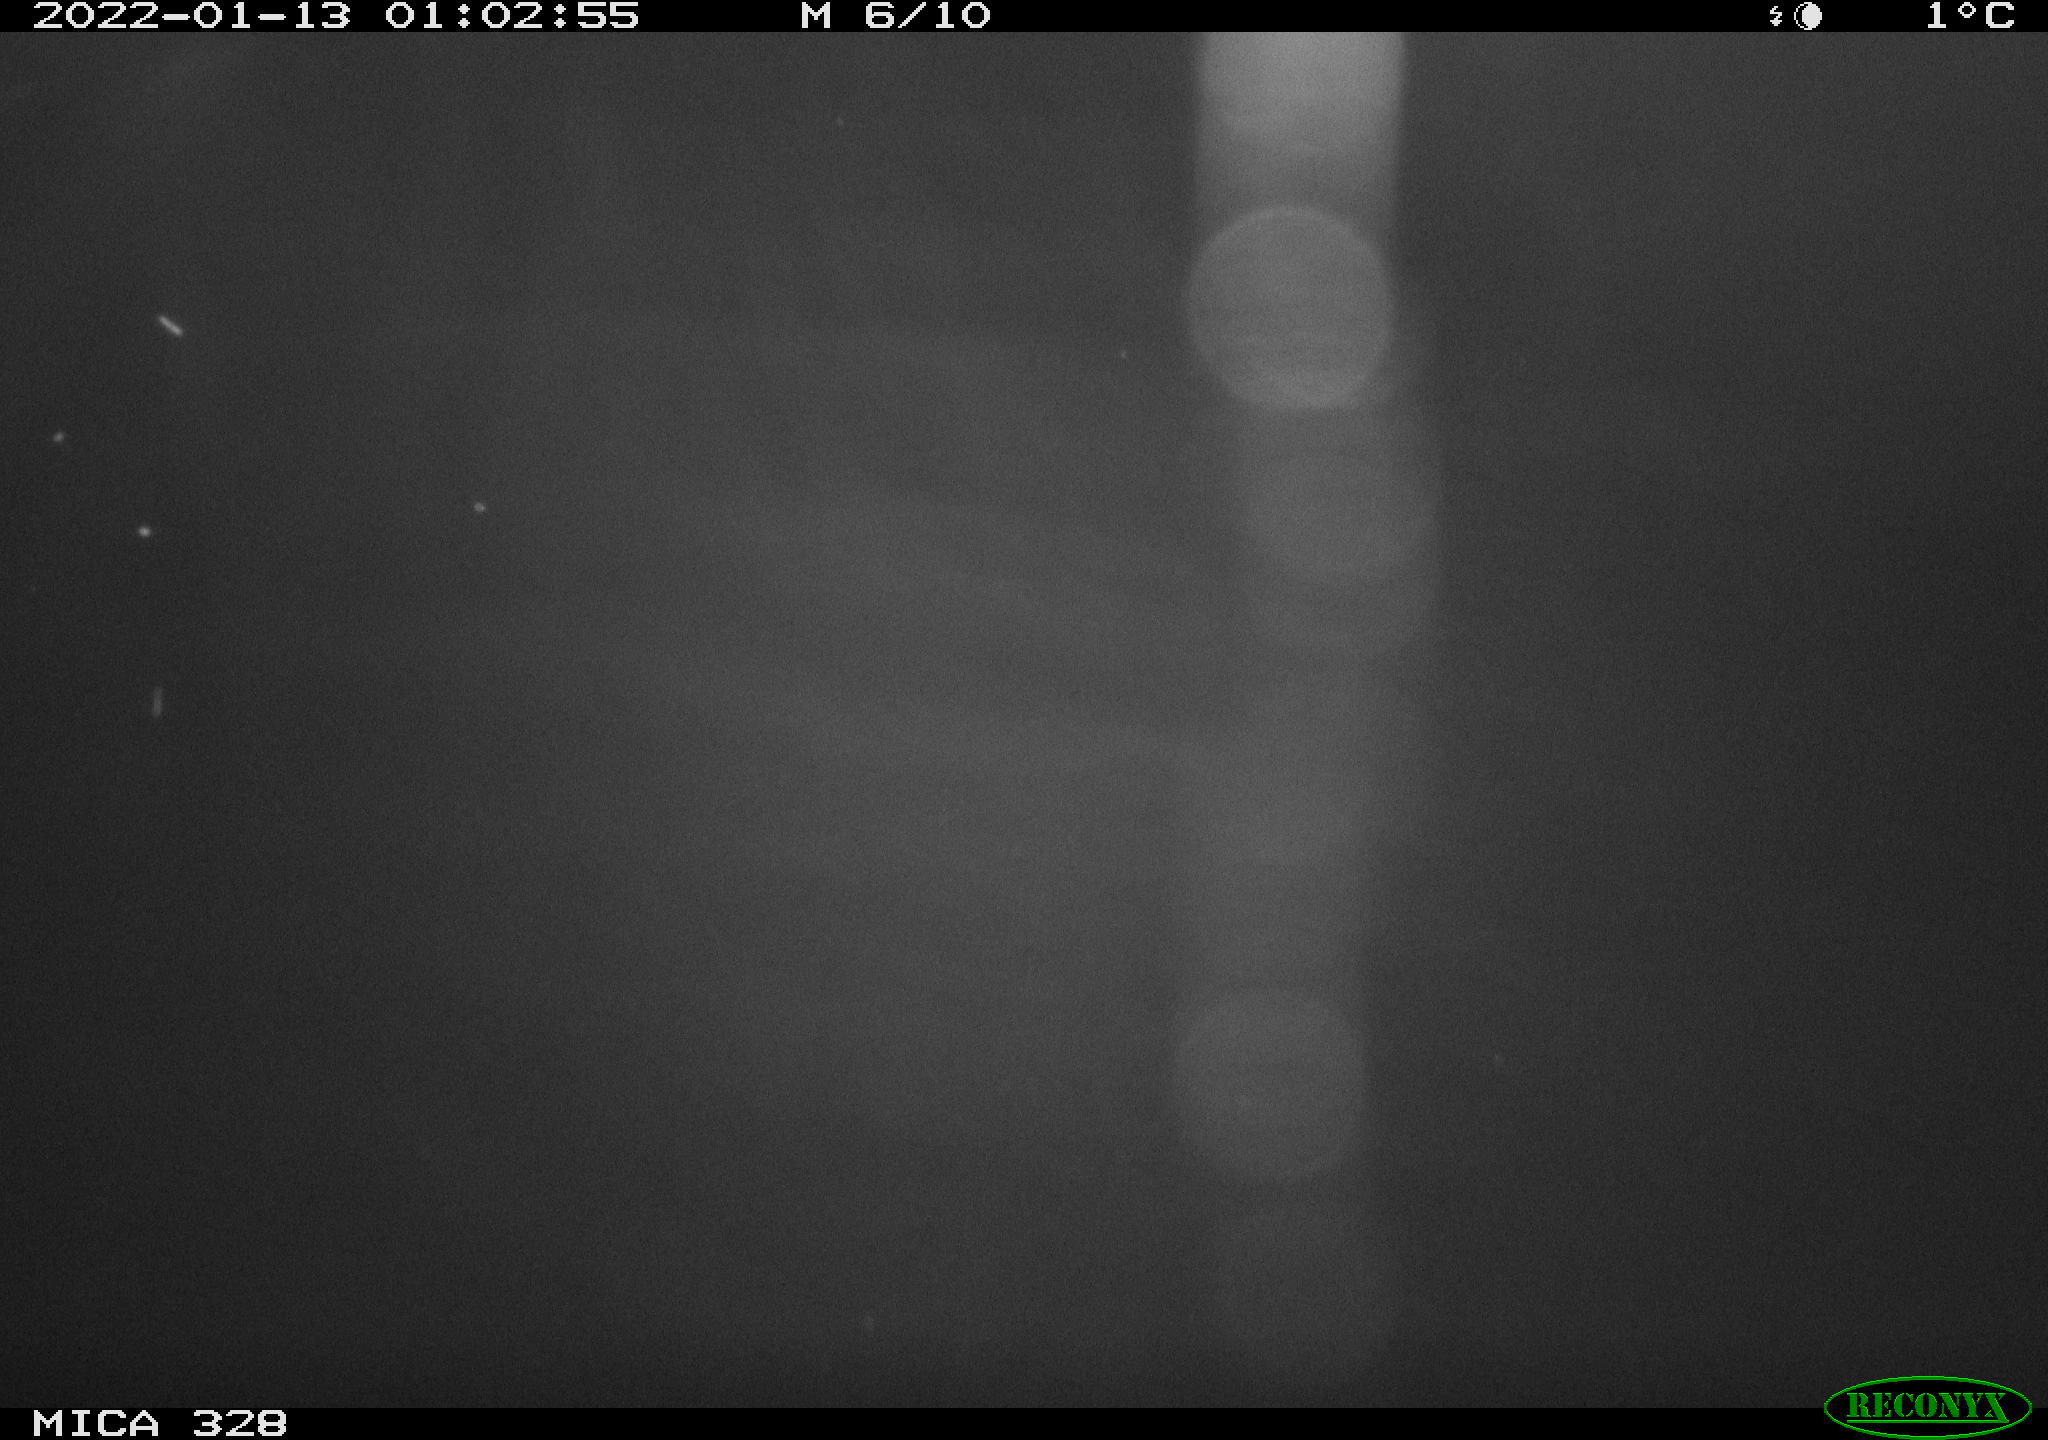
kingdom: Animalia
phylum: Chordata
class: Mammalia
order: Rodentia
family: Cricetidae
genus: Ondatra
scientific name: Ondatra zibethicus
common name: Muskrat
